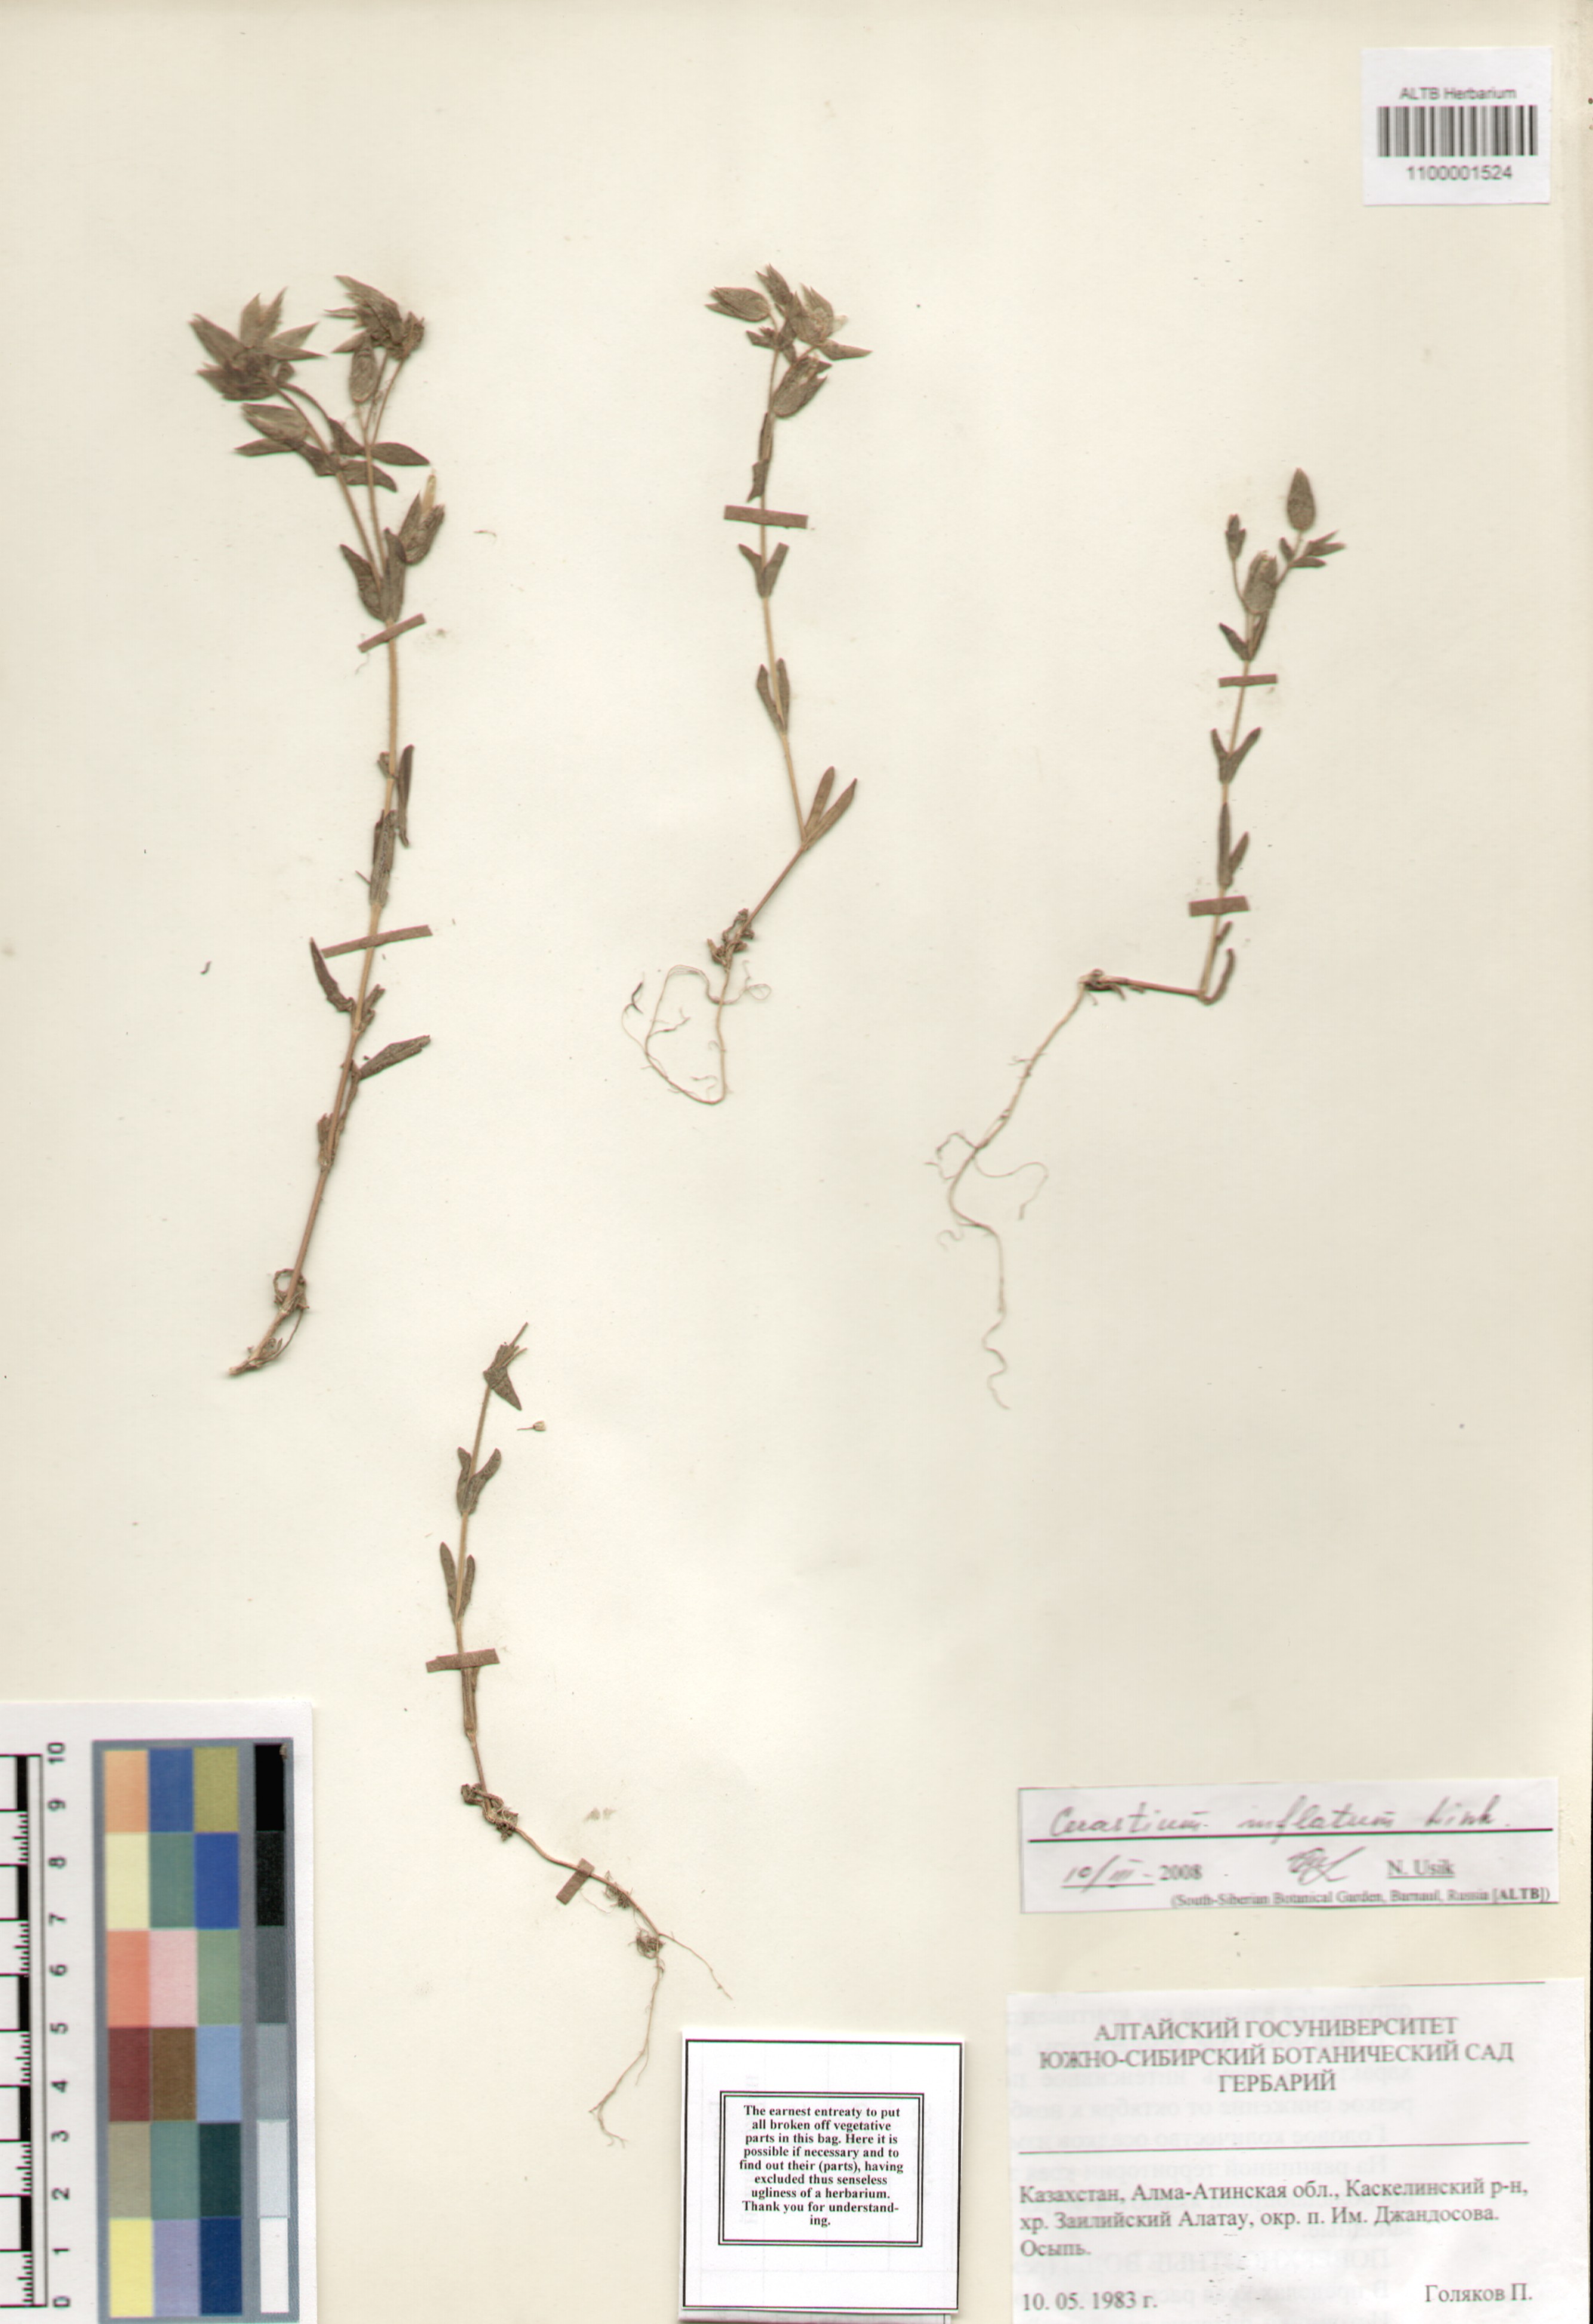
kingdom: Plantae
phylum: Tracheophyta
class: Magnoliopsida
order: Caryophyllales
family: Caryophyllaceae
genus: Cerastium
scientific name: Cerastium inflatum
